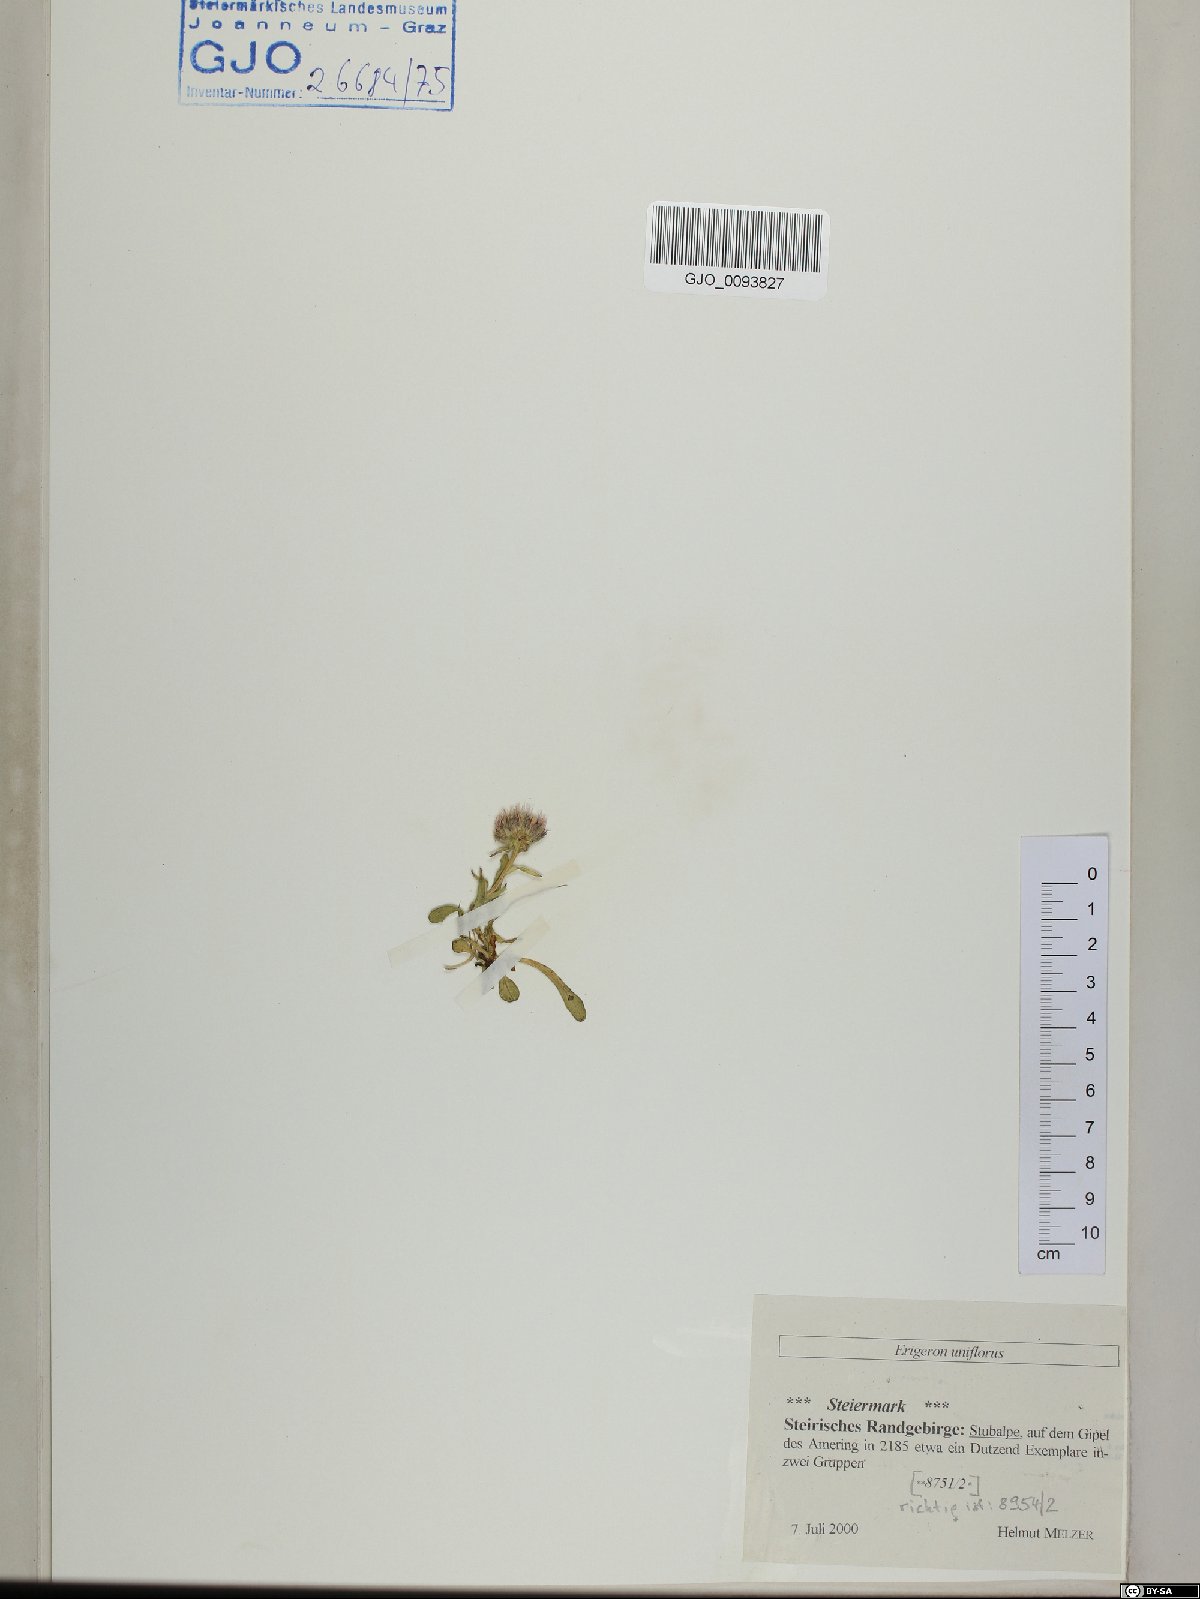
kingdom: Plantae
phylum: Tracheophyta
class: Magnoliopsida
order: Asterales
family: Asteraceae
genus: Erigeron
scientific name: Erigeron uniflorus
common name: Northern daisy
